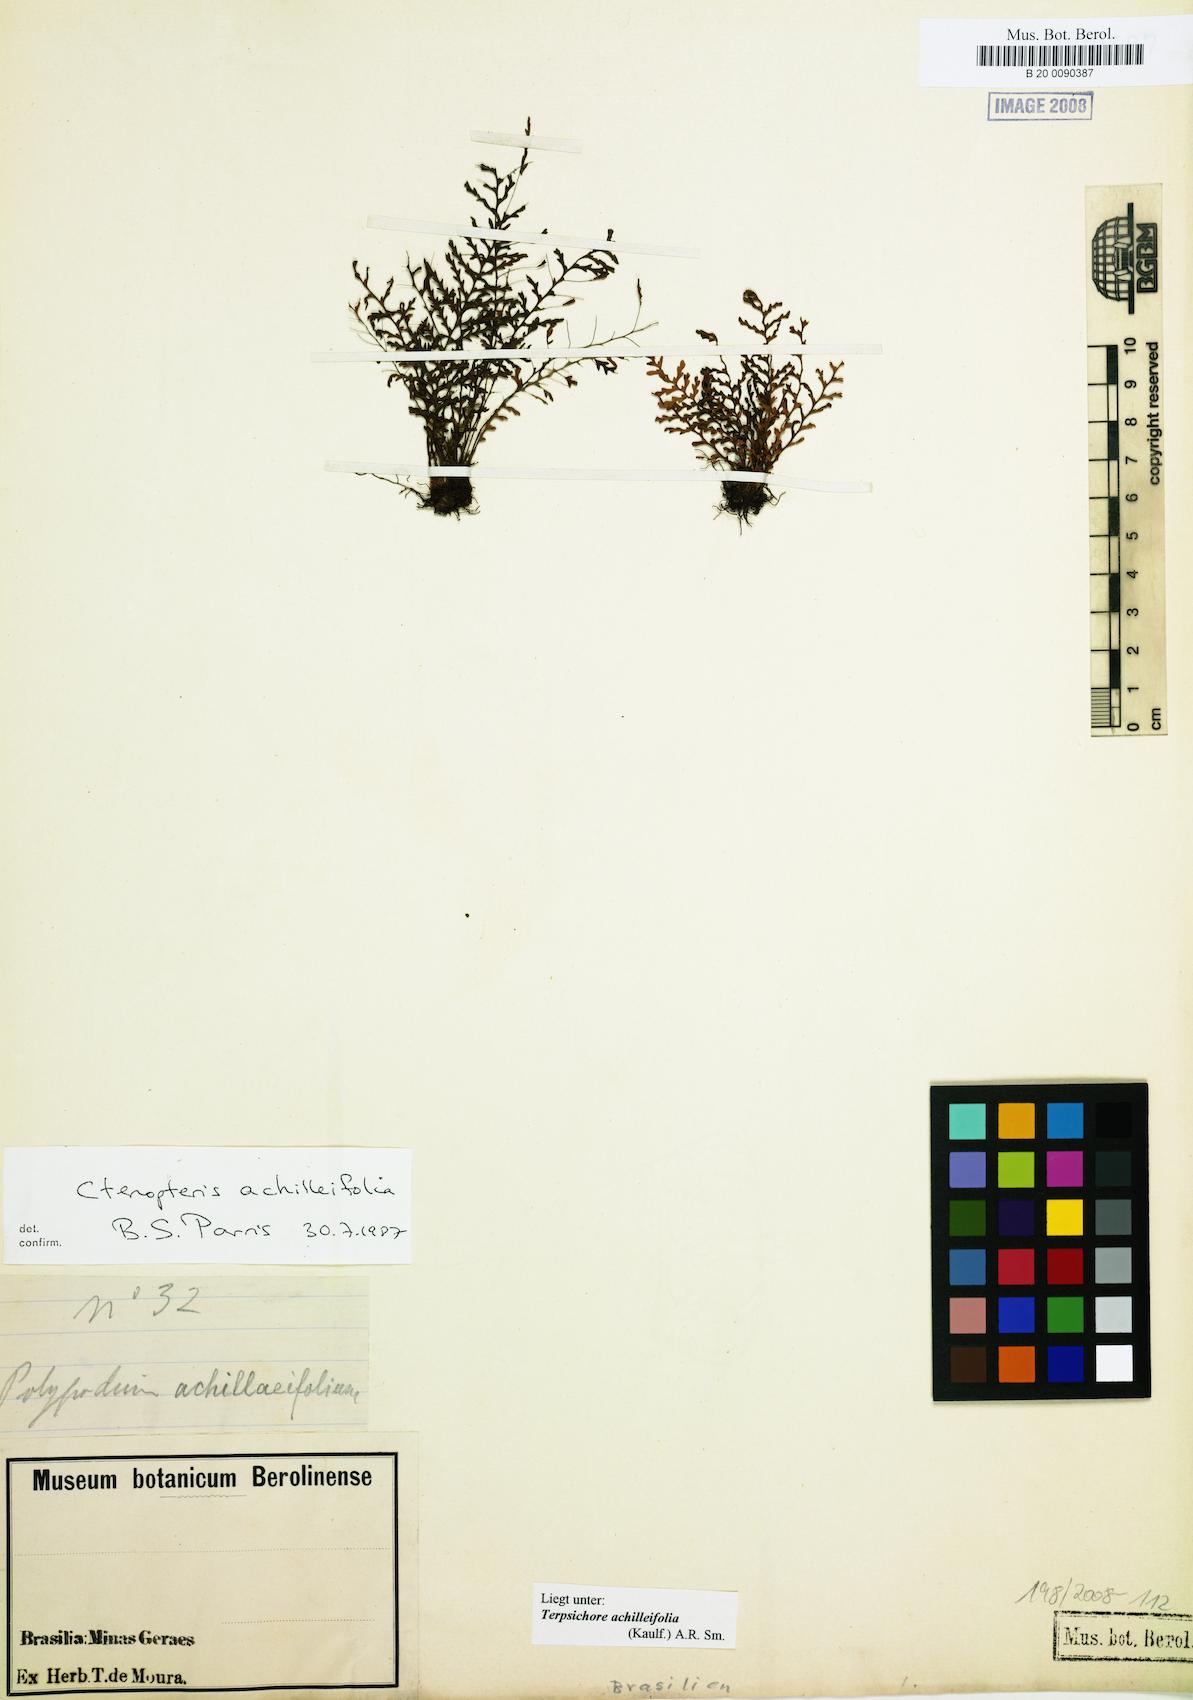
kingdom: Plantae
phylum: Tracheophyta
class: Polypodiopsida
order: Polypodiales
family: Polypodiaceae
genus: Moranopteris
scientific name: Moranopteris achilleifolia
